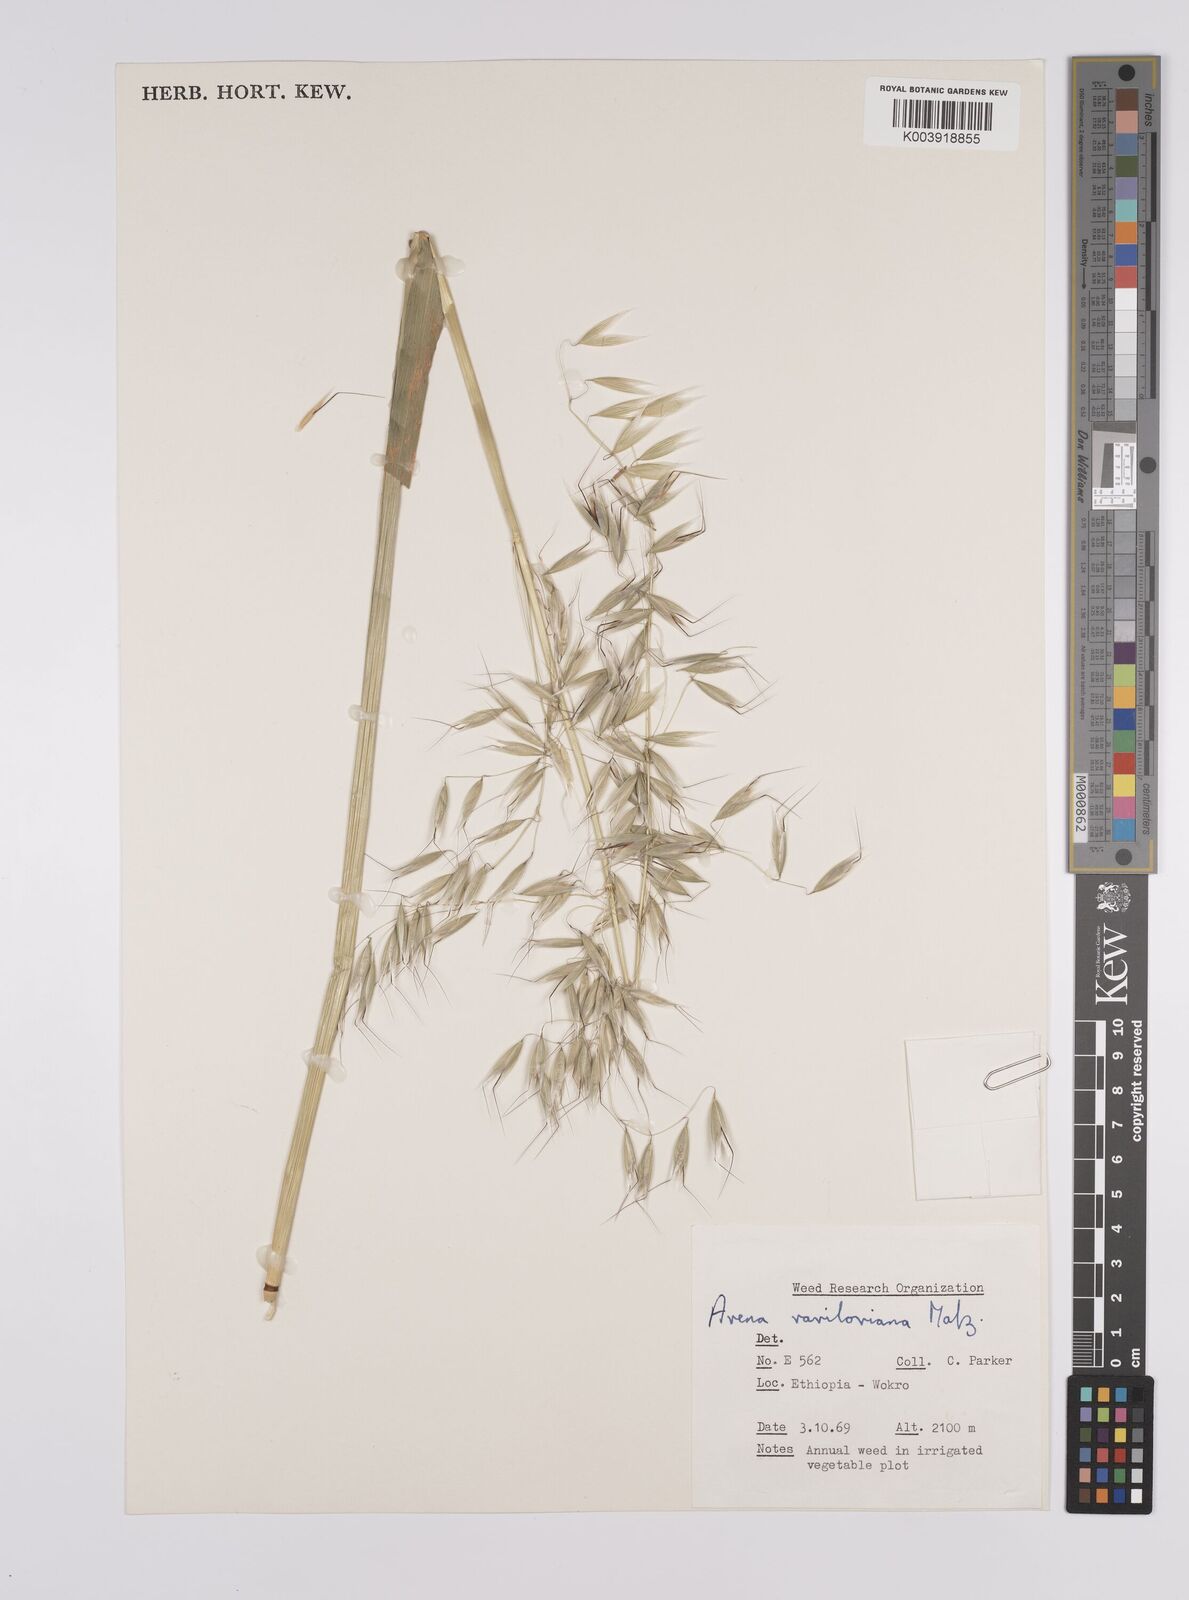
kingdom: Plantae
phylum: Tracheophyta
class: Liliopsida
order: Poales
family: Poaceae
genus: Avena
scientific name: Avena vaviloviana
